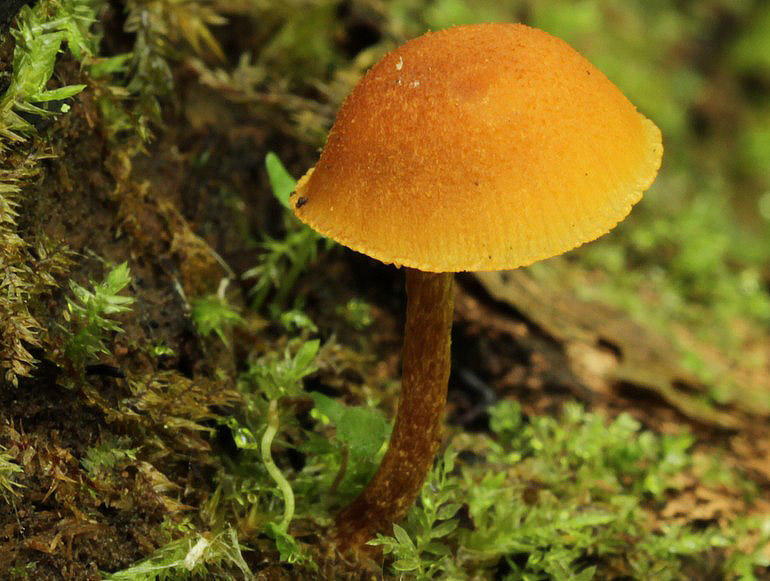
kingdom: Fungi
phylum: Basidiomycota
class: Agaricomycetes
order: Agaricales
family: Tubariaceae
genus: Flammulaster
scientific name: Flammulaster limulatus
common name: gylden grynskælhat
